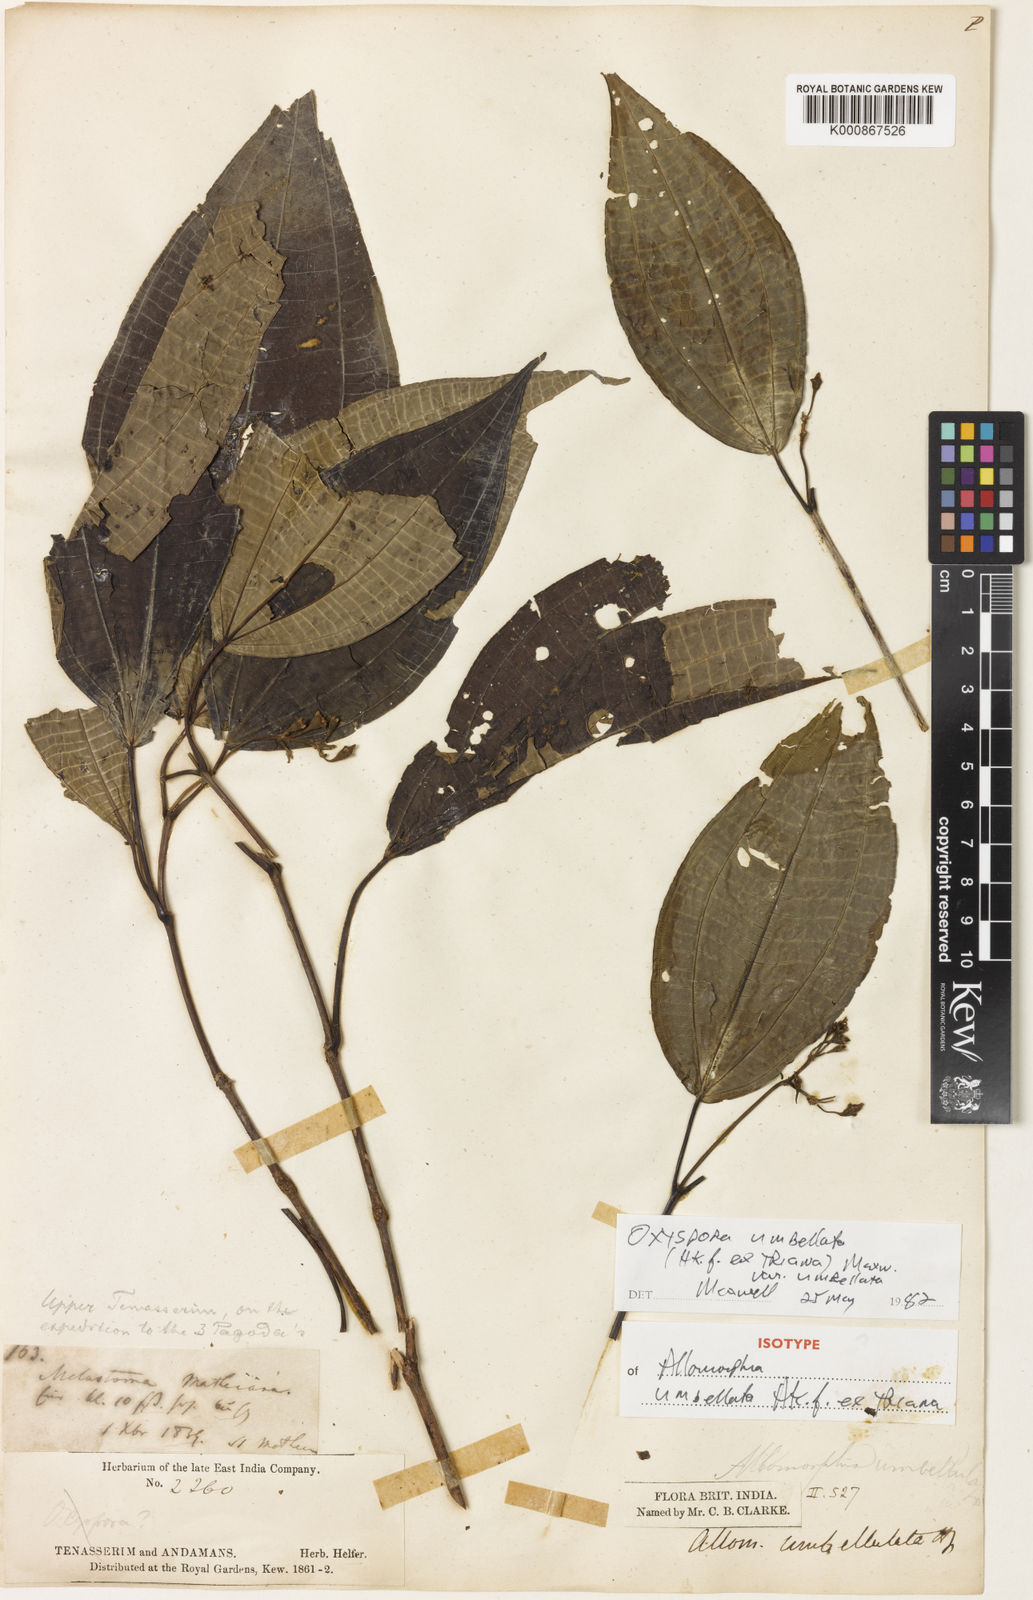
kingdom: Plantae
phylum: Tracheophyta
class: Magnoliopsida
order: Myrtales
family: Melastomataceae
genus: Allomorphia
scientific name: Allomorphia umbellulata
